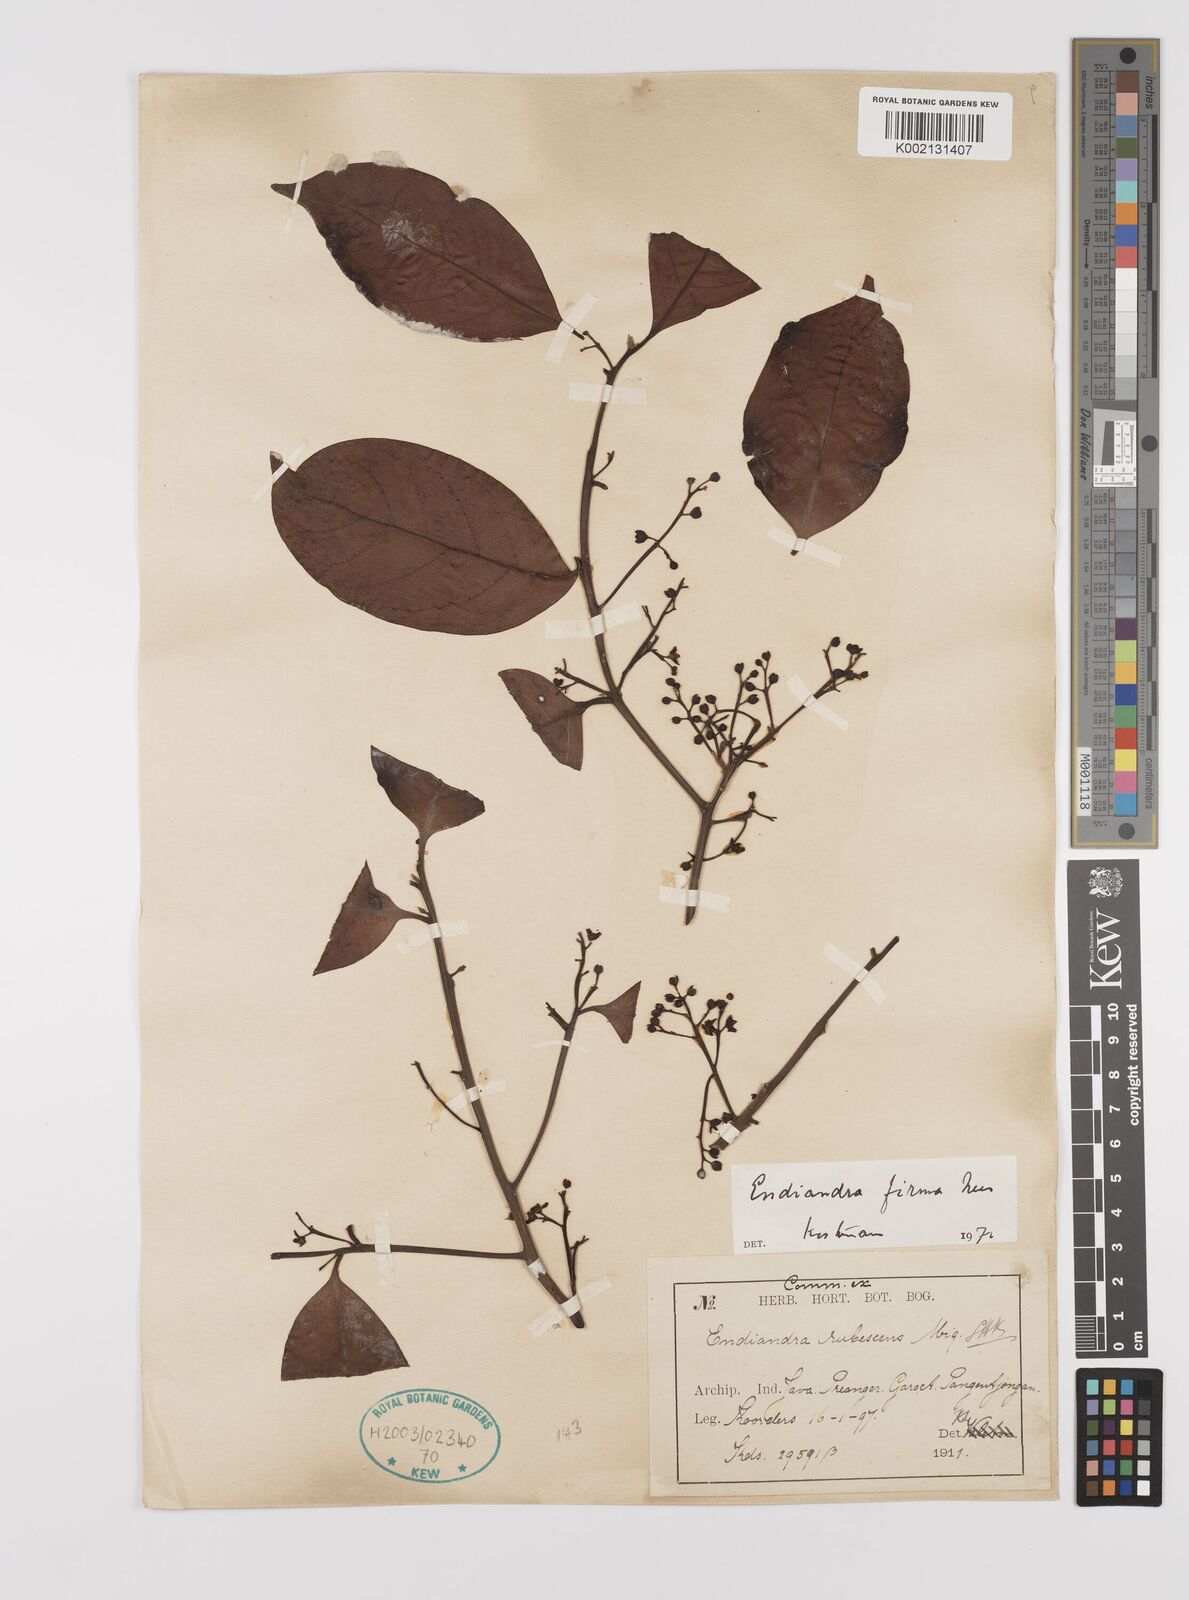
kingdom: Plantae
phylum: Tracheophyta
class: Magnoliopsida
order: Laurales
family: Lauraceae
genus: Endiandra
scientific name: Endiandra firma
